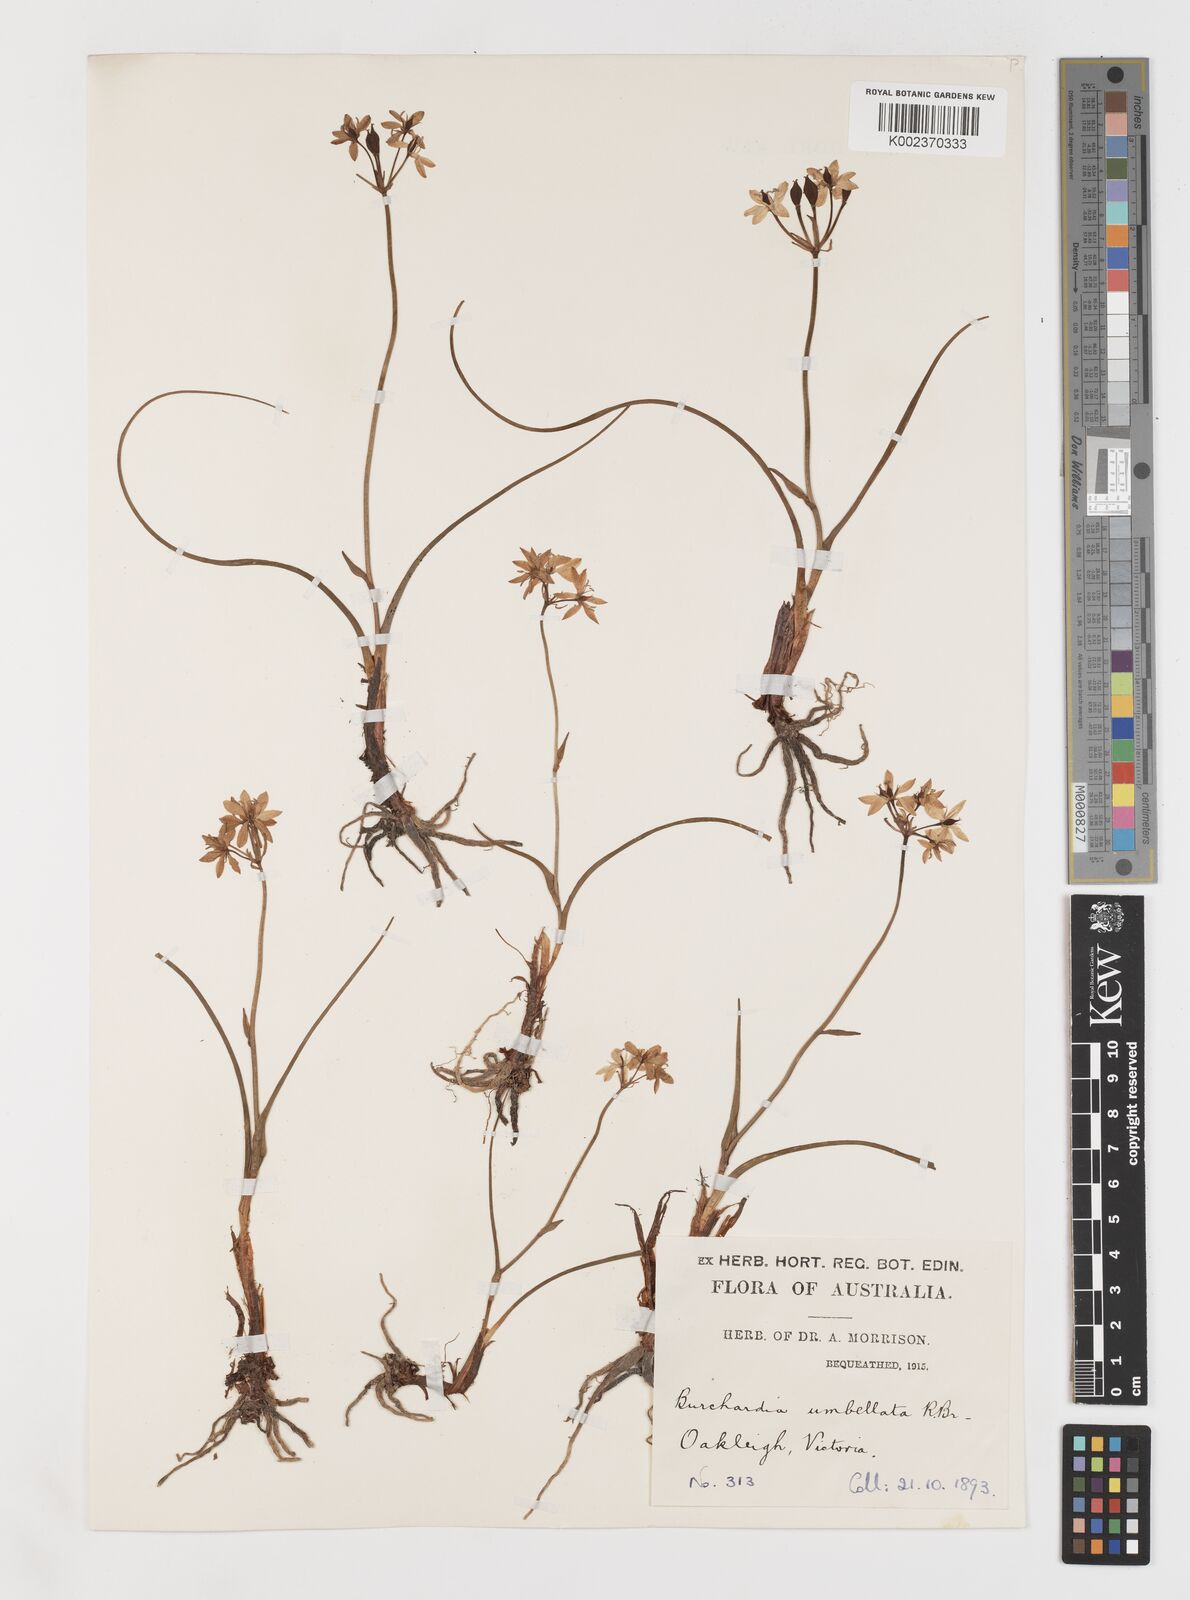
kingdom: Plantae
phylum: Tracheophyta
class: Liliopsida
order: Liliales
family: Colchicaceae
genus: Burchardia
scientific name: Burchardia umbellata
